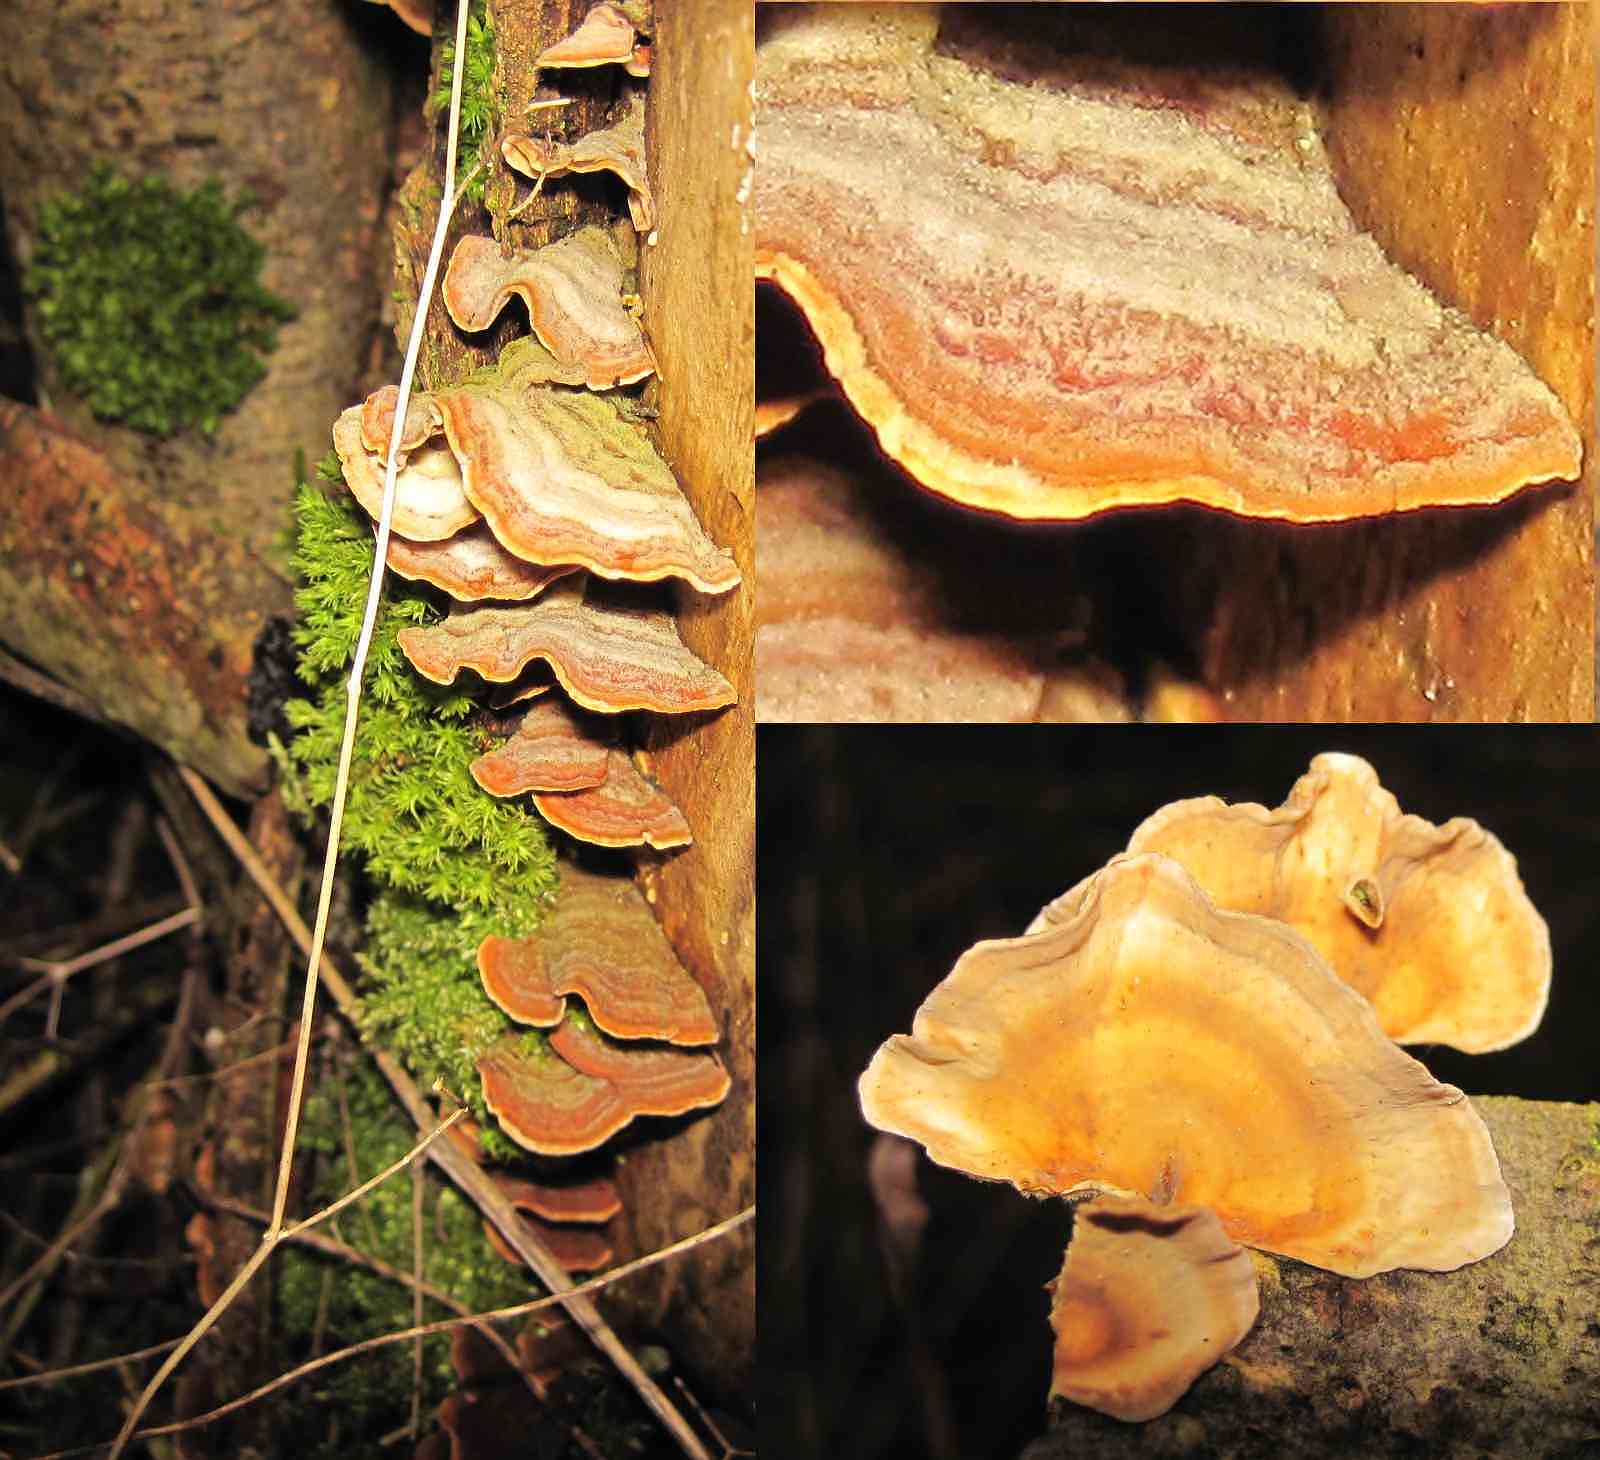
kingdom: Fungi
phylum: Basidiomycota
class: Agaricomycetes
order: Russulales
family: Stereaceae
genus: Stereum
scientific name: Stereum subtomentosum
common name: smuk lædersvamp
